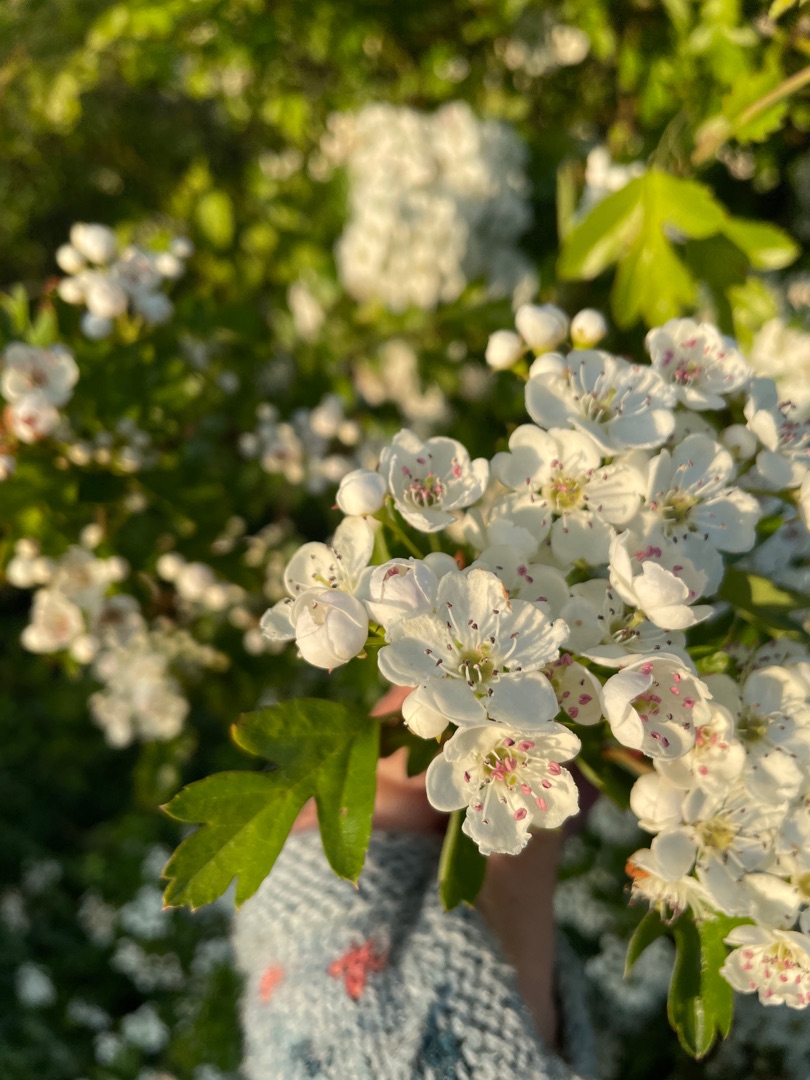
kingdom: Plantae
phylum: Tracheophyta
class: Magnoliopsida
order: Rosales
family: Rosaceae
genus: Crataegus
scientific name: Crataegus monogyna
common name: Engriflet hvidtjørn
